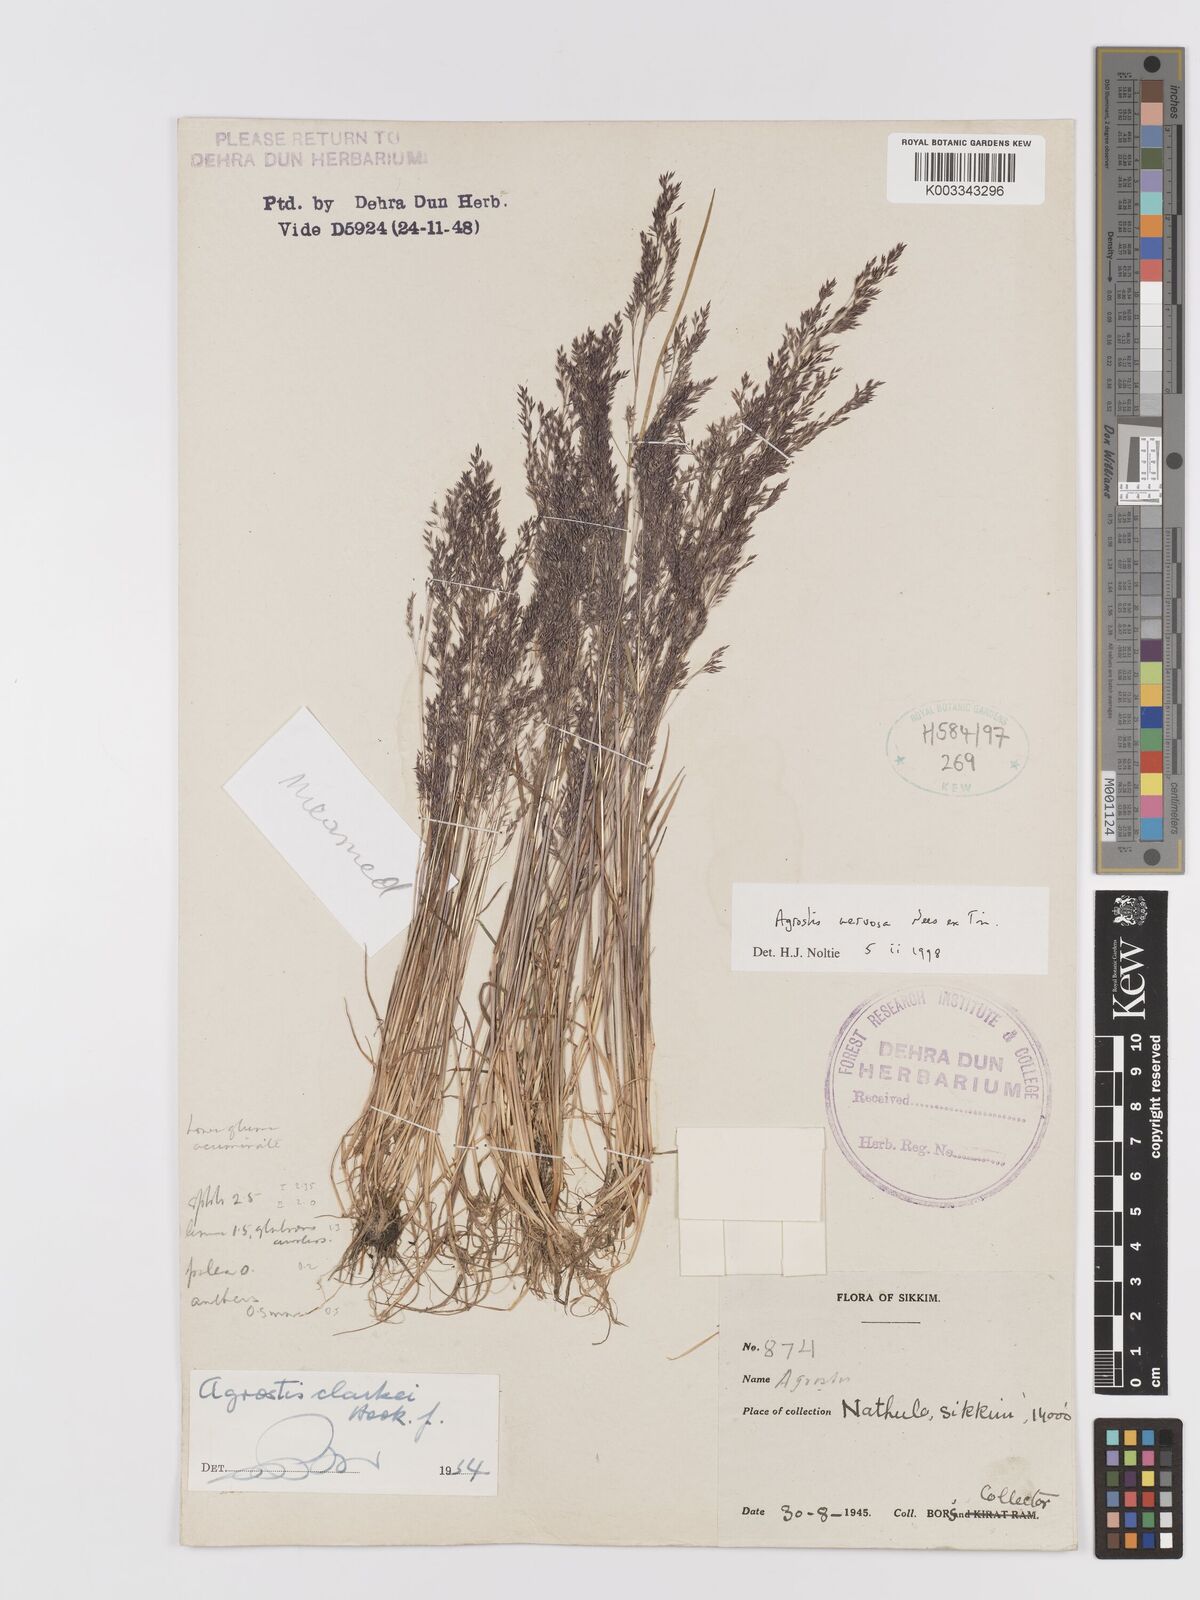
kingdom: Plantae
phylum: Tracheophyta
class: Liliopsida
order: Poales
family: Poaceae
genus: Agrostis
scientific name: Agrostis nervosa
